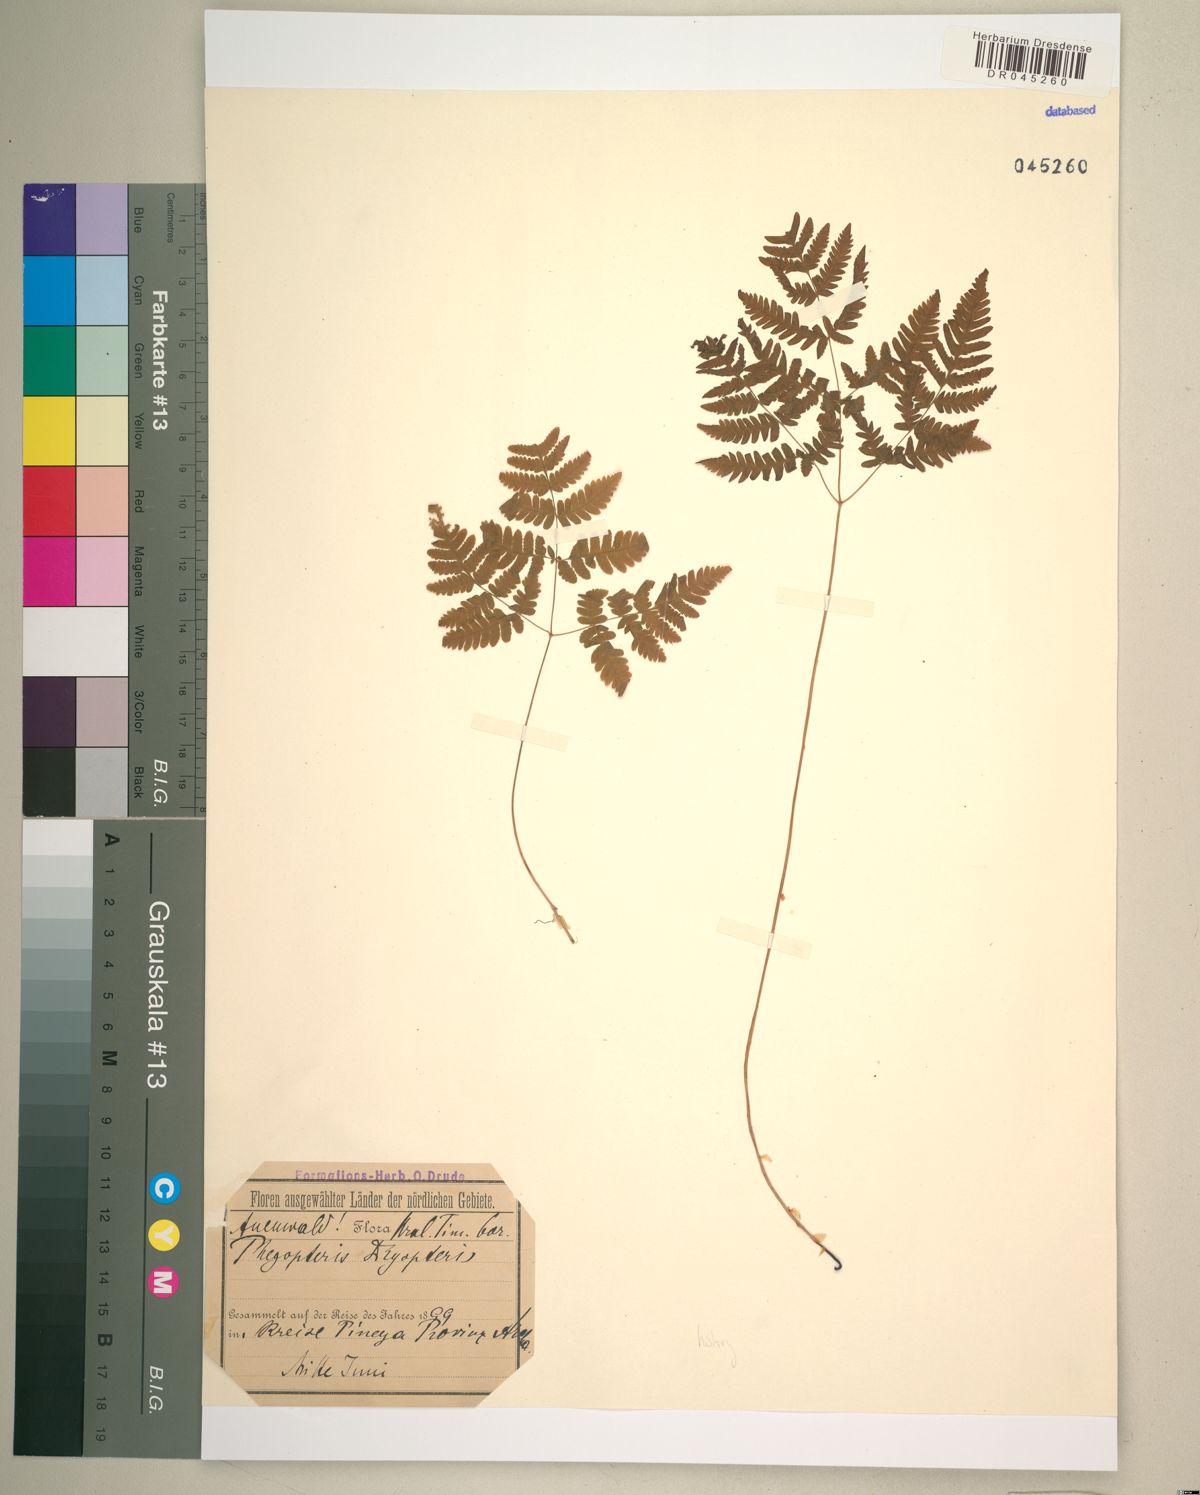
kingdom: Plantae
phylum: Tracheophyta
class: Polypodiopsida
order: Polypodiales
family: Cystopteridaceae
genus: Gymnocarpium
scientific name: Gymnocarpium dryopteris
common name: Oak fern
